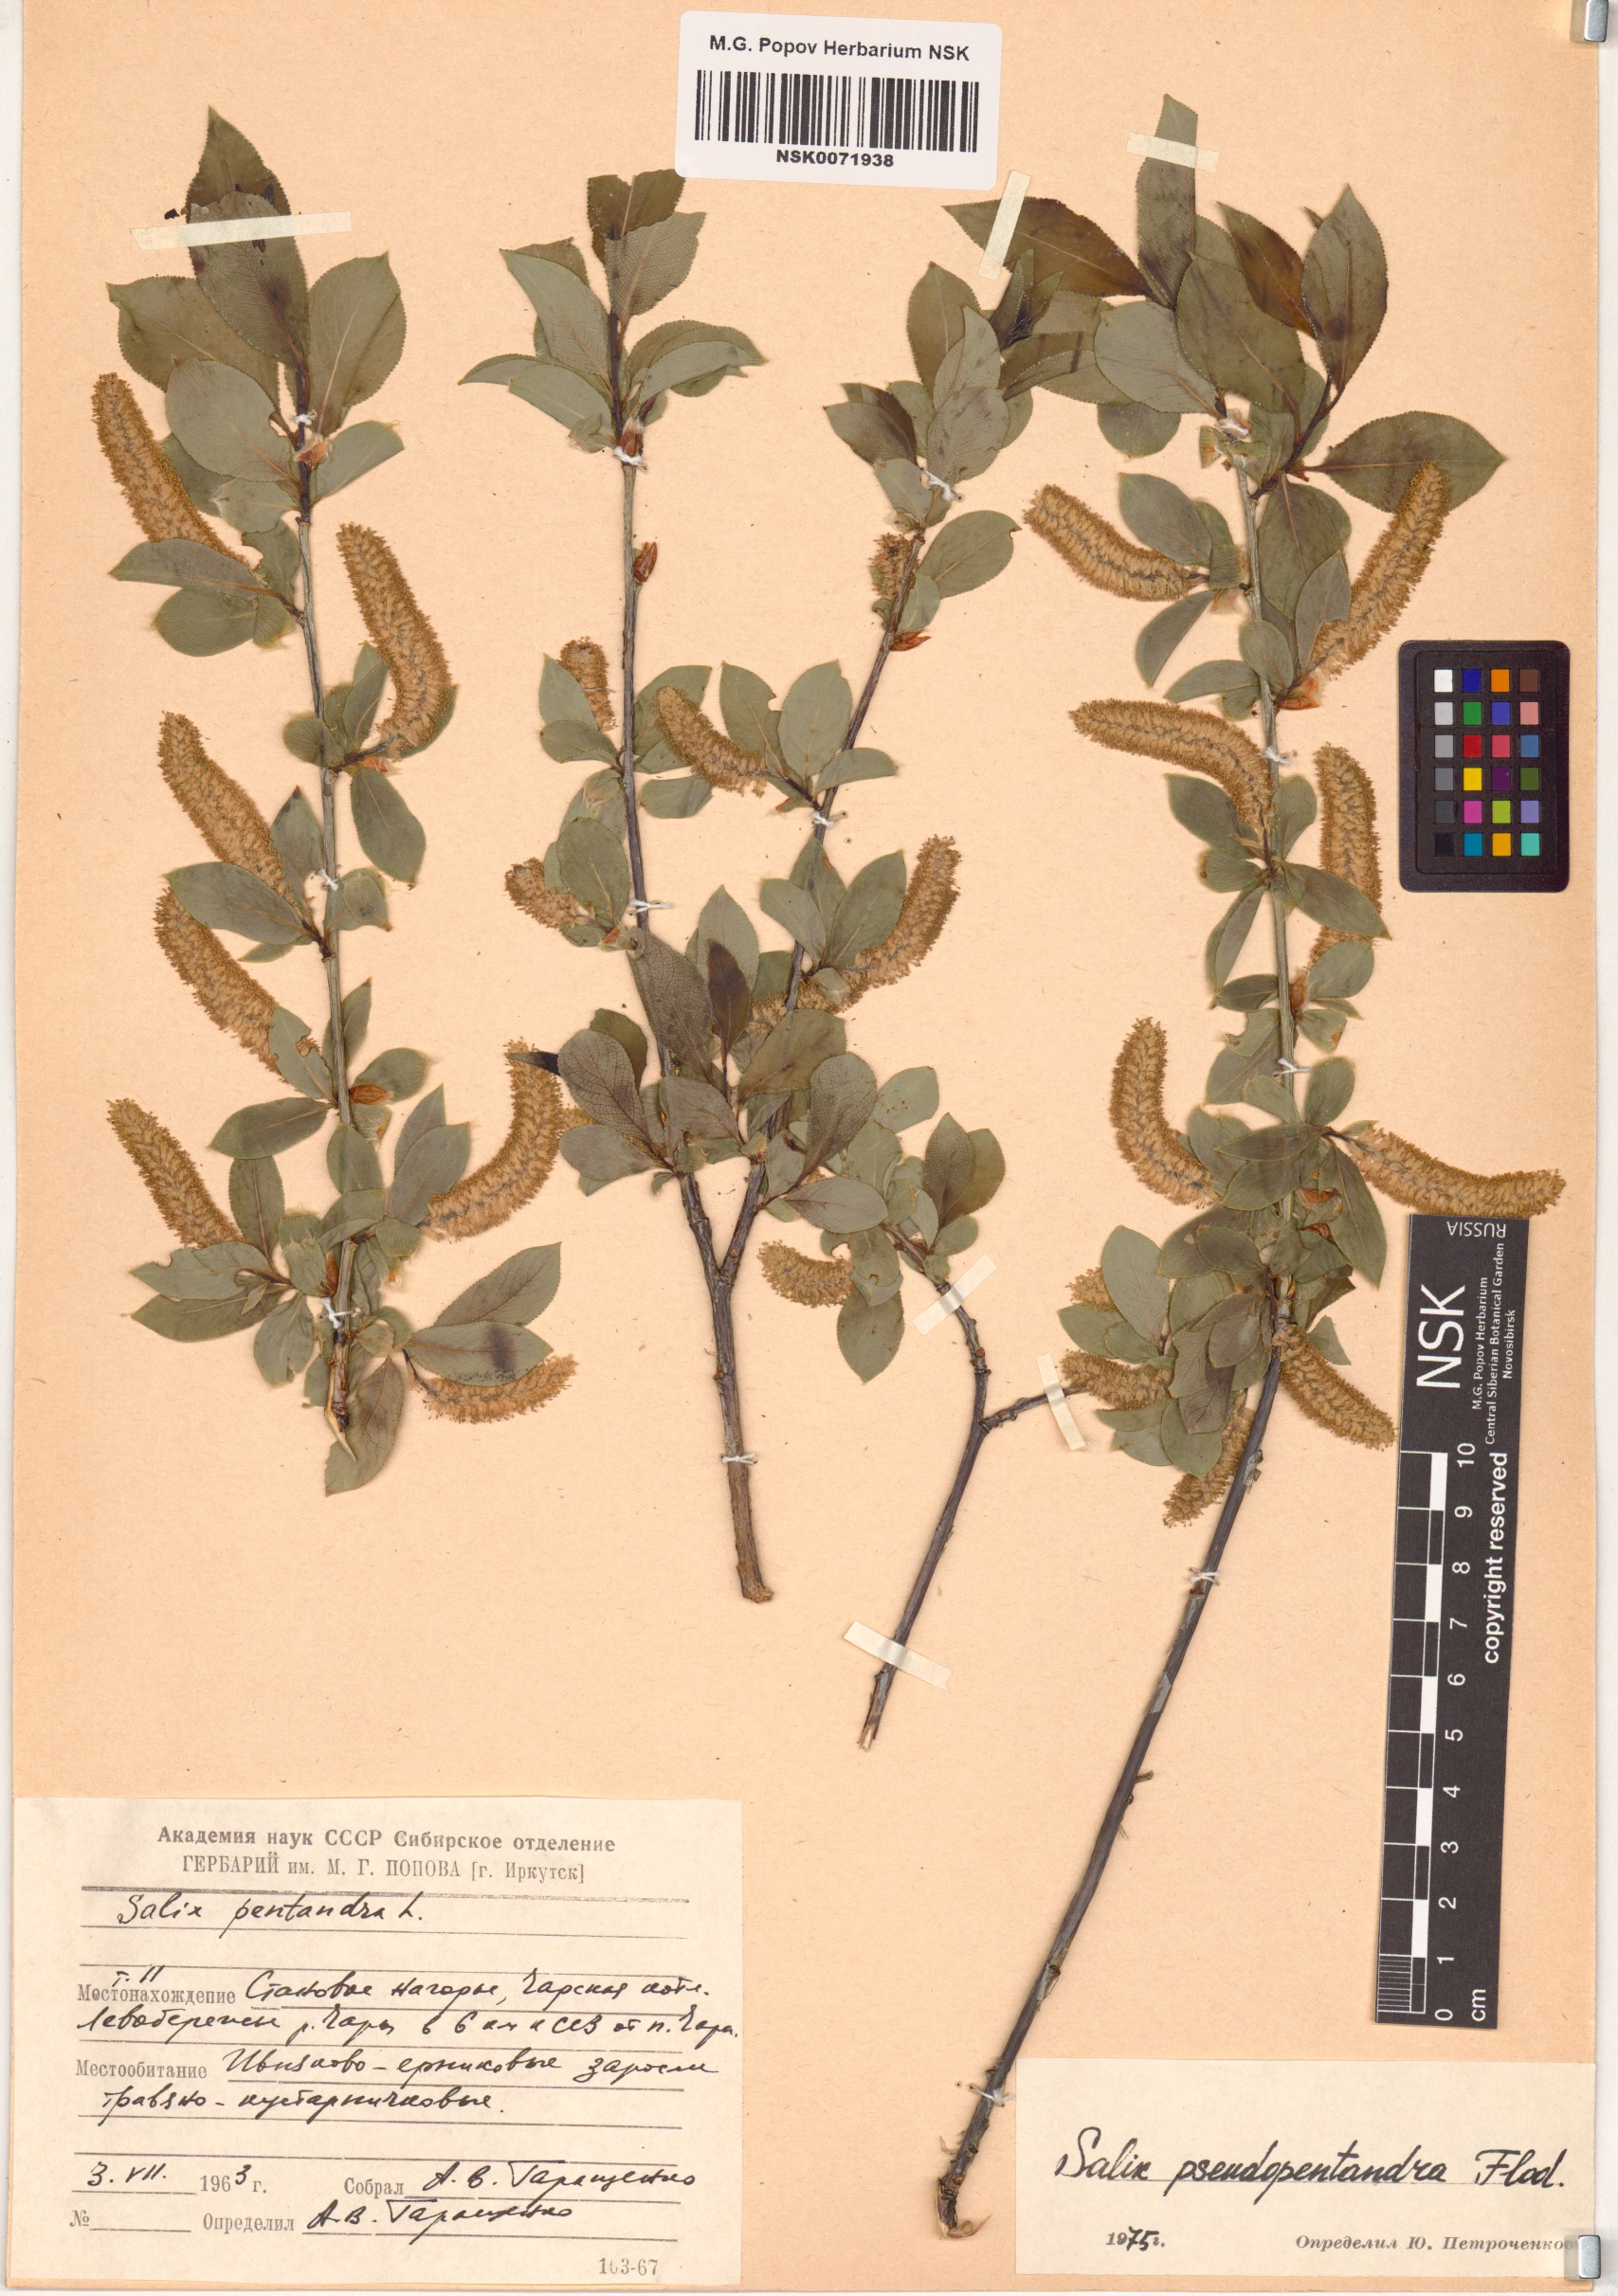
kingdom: Plantae
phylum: Tracheophyta
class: Magnoliopsida
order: Malpighiales
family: Salicaceae
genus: Salix
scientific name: Salix pseudopentandra
